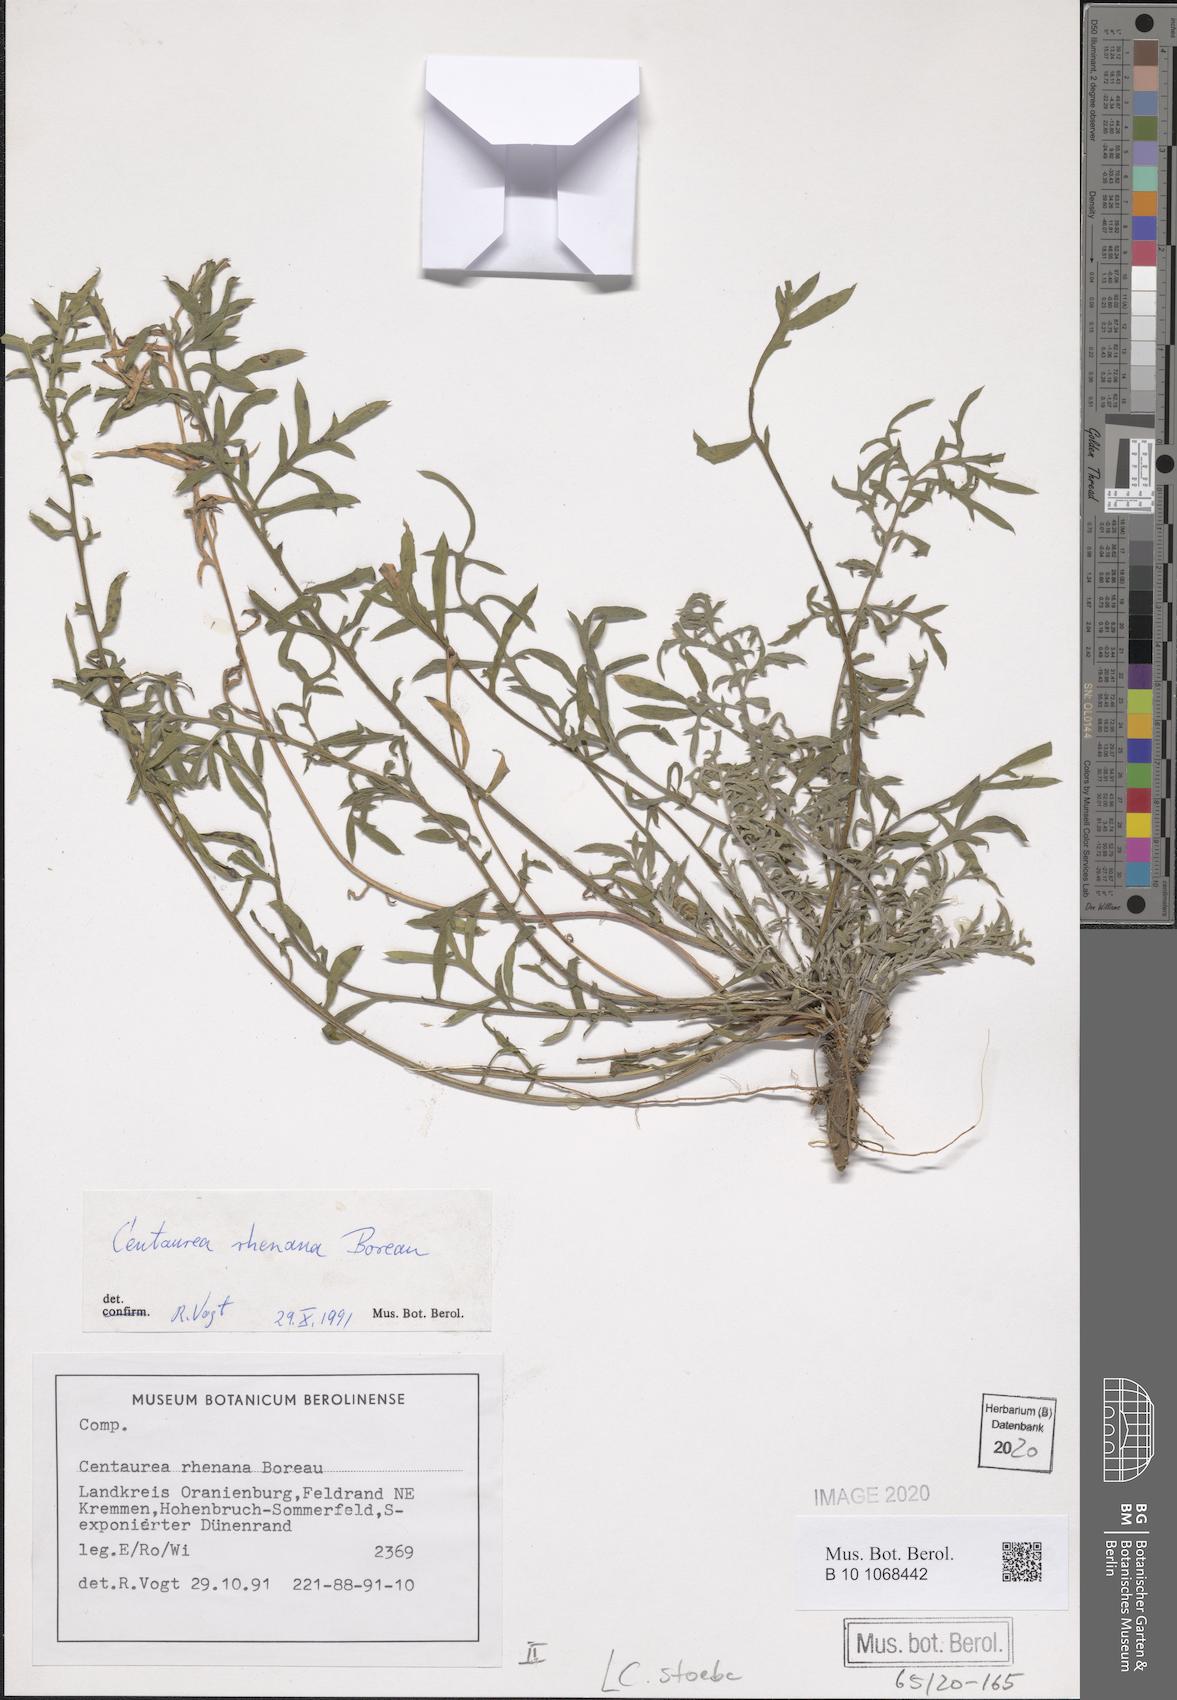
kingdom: Plantae
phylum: Tracheophyta
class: Magnoliopsida
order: Asterales
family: Asteraceae
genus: Centaurea
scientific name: Centaurea stoebe
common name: Spotted knapweed
